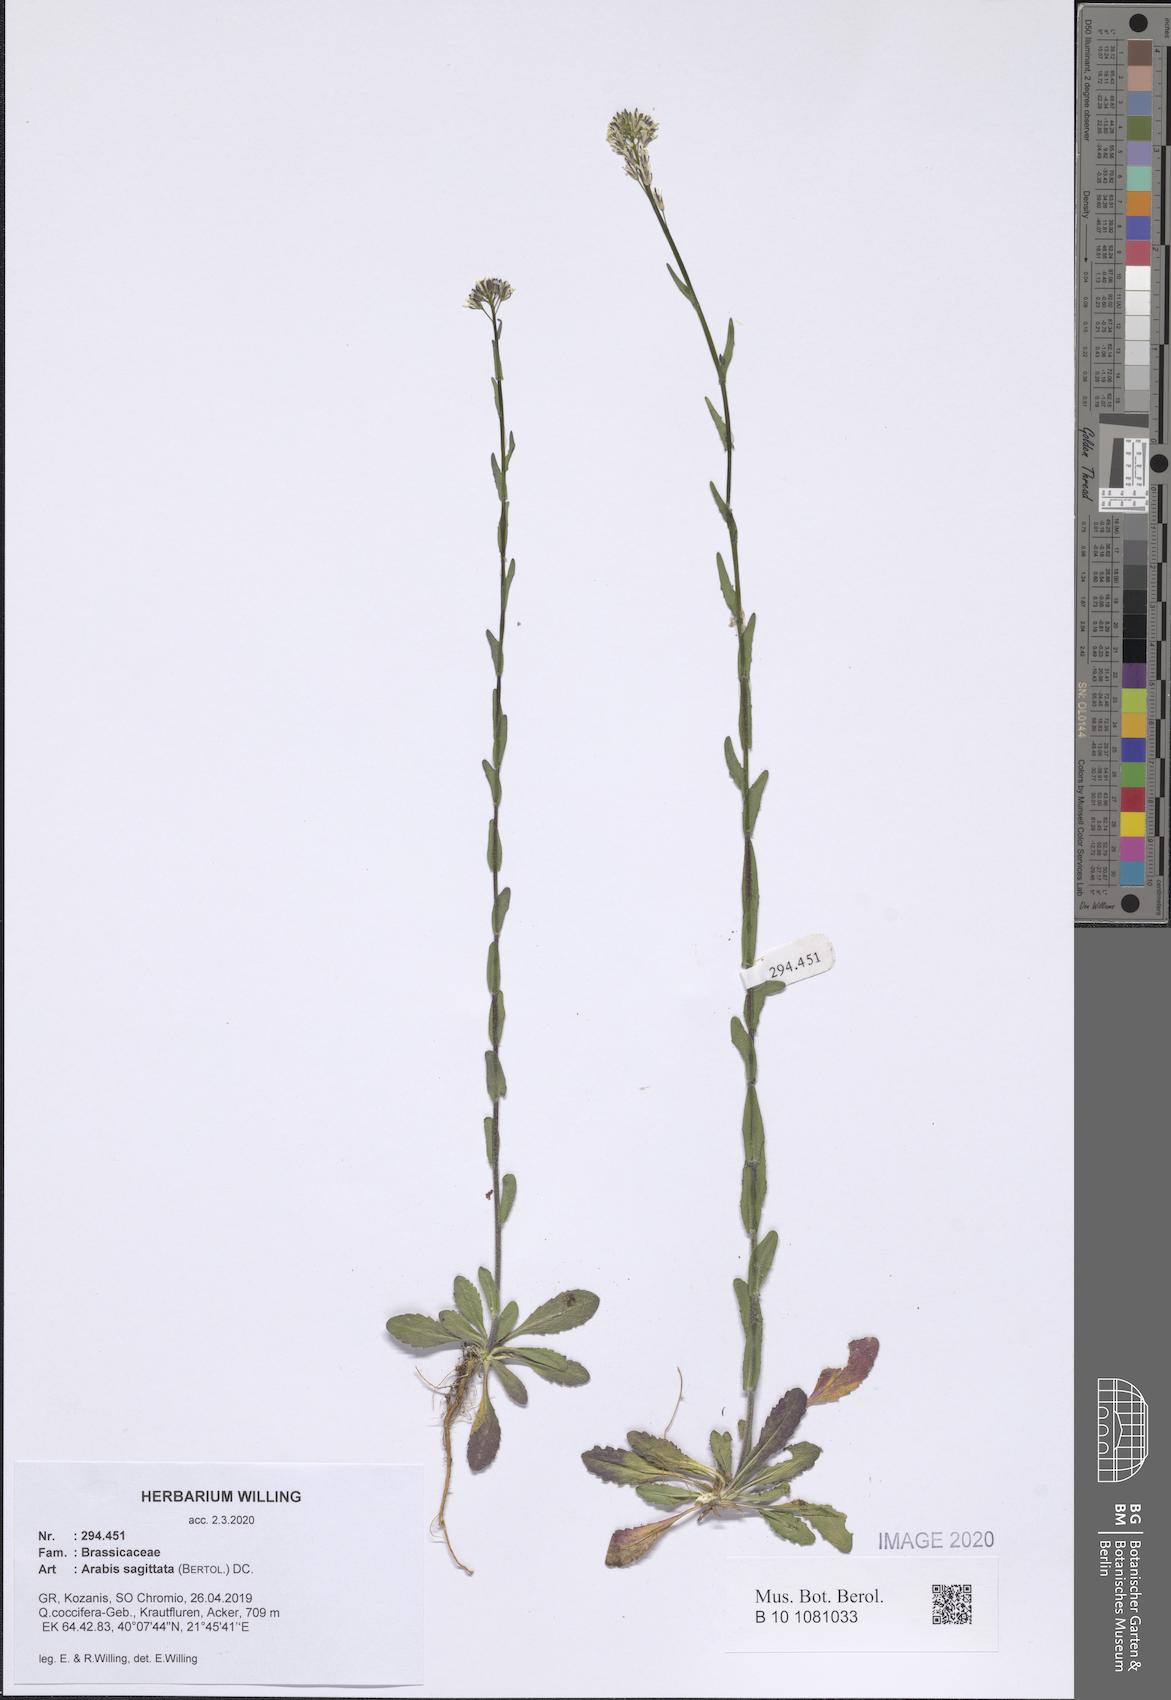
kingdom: Plantae
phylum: Tracheophyta
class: Magnoliopsida
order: Brassicales
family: Brassicaceae
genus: Arabis
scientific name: Arabis sagittata
